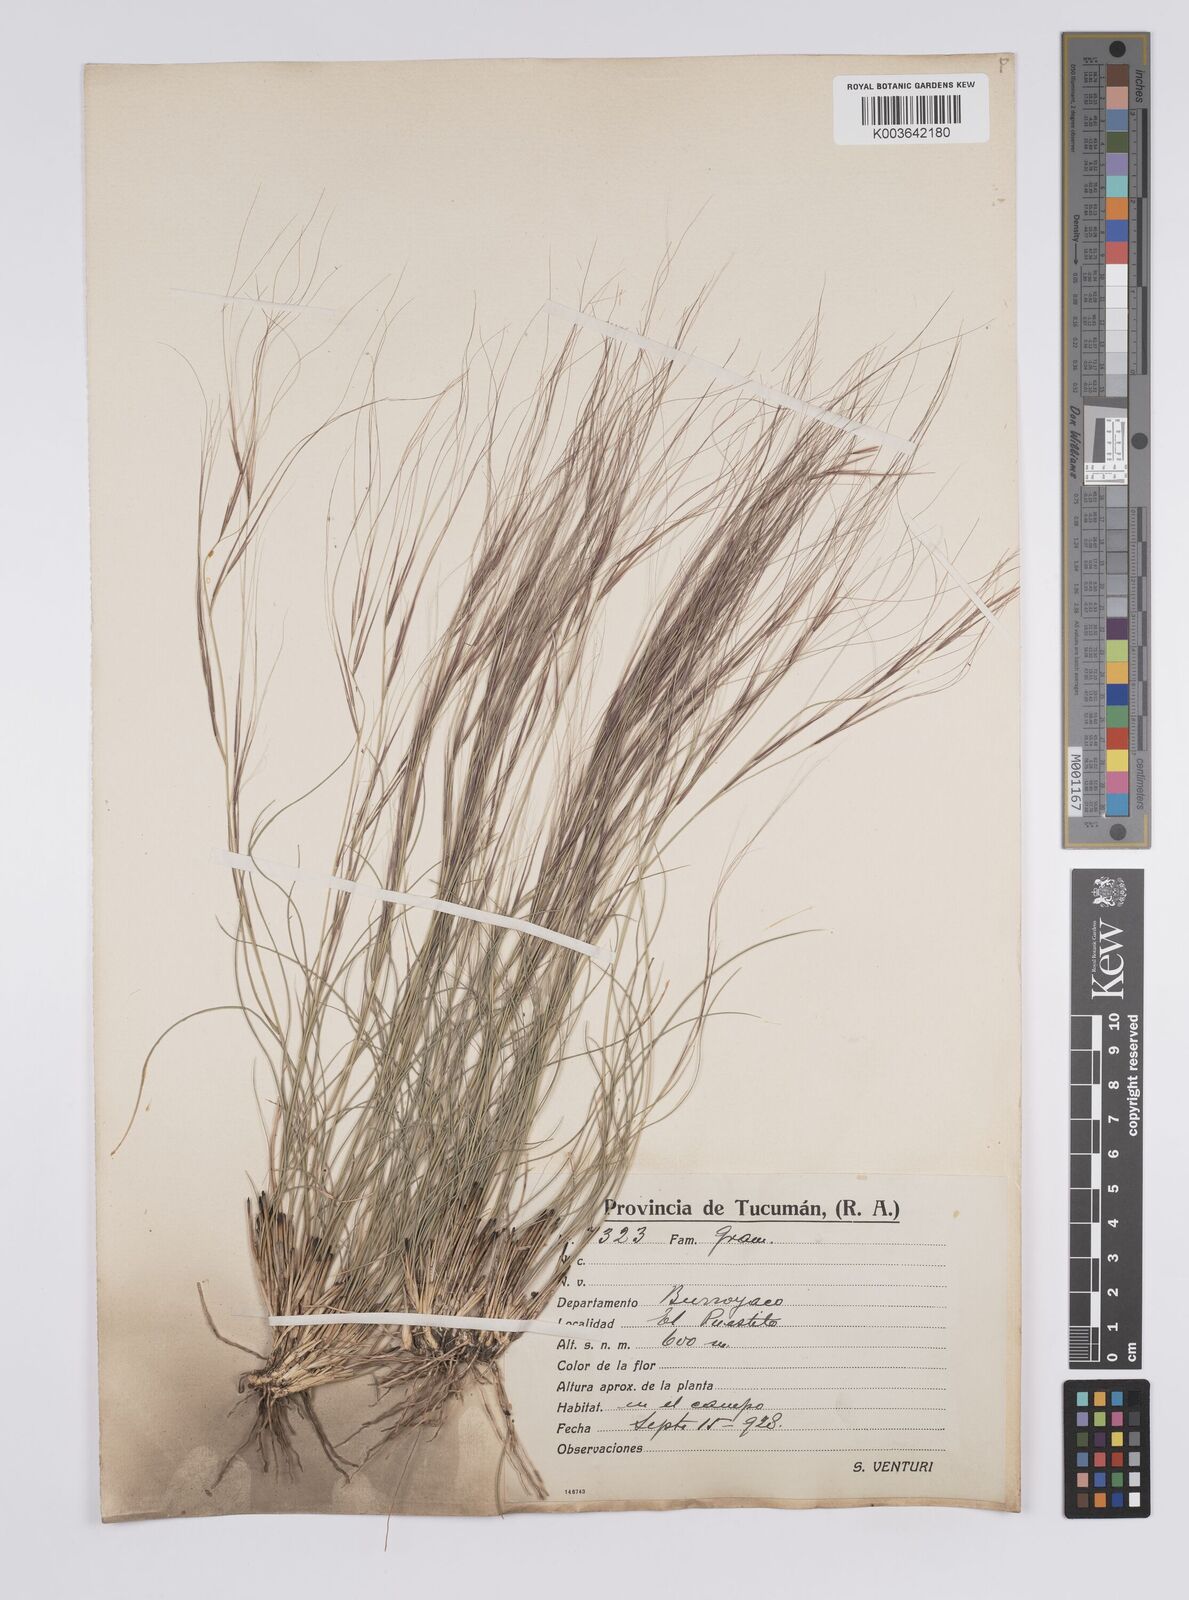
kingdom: Plantae
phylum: Tracheophyta
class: Liliopsida
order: Poales
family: Poaceae
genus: Aristida
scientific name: Aristida
